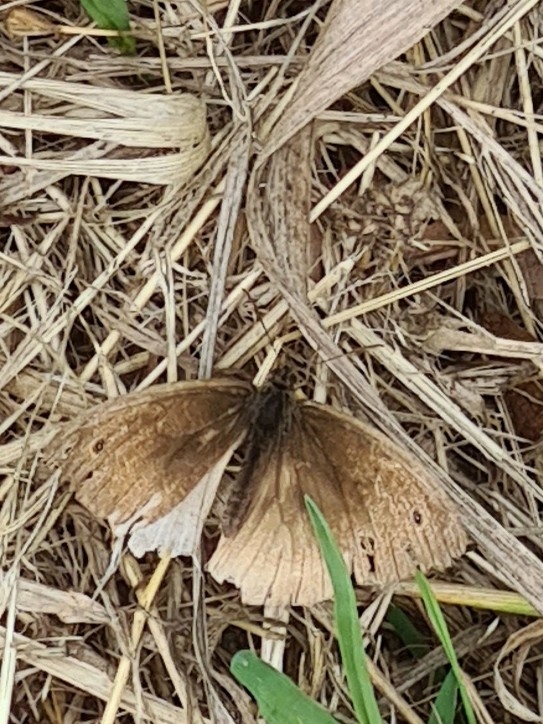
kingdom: Animalia
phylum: Arthropoda
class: Insecta
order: Lepidoptera
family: Nymphalidae
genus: Maniola
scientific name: Maniola jurtina
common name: Græsrandøje
